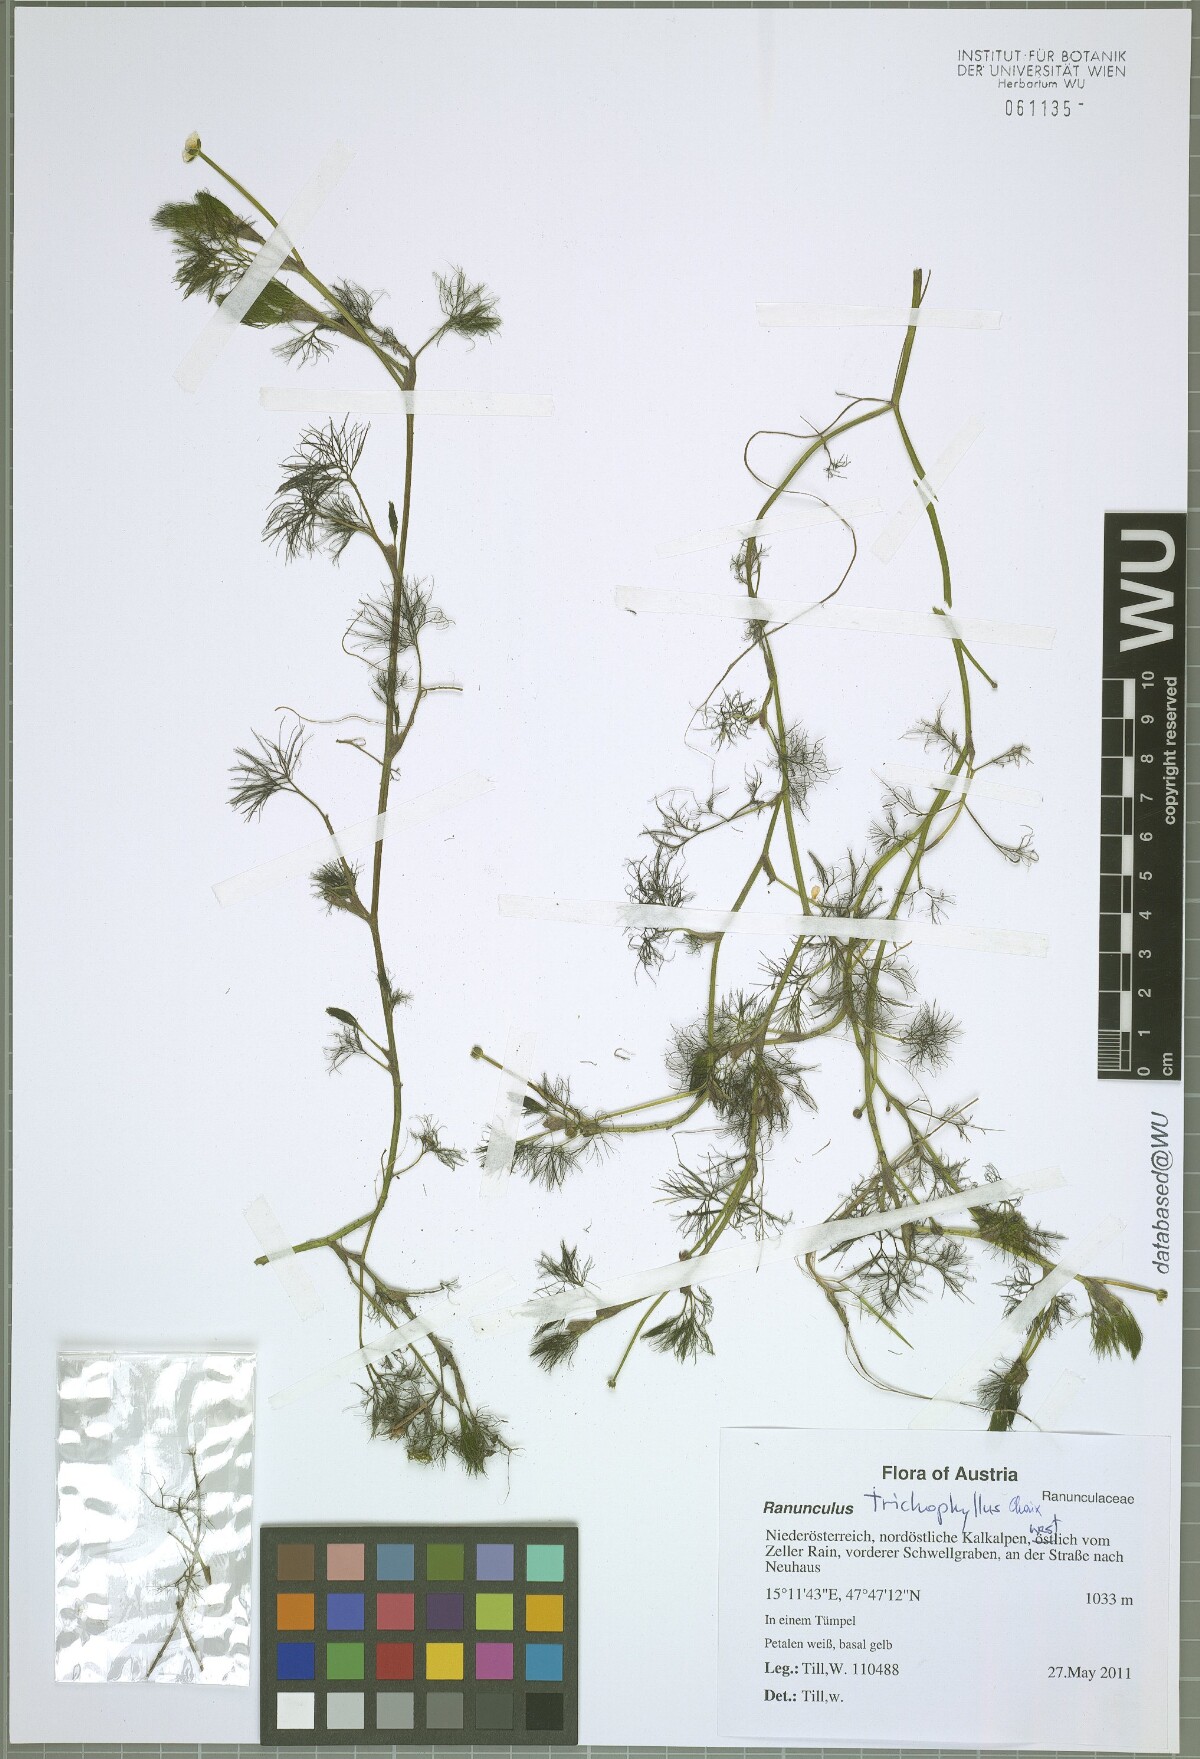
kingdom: Plantae
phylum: Tracheophyta
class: Magnoliopsida
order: Ranunculales
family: Ranunculaceae
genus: Ranunculus
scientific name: Ranunculus trichophyllus
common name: Thread-leaved water-crowfoot
